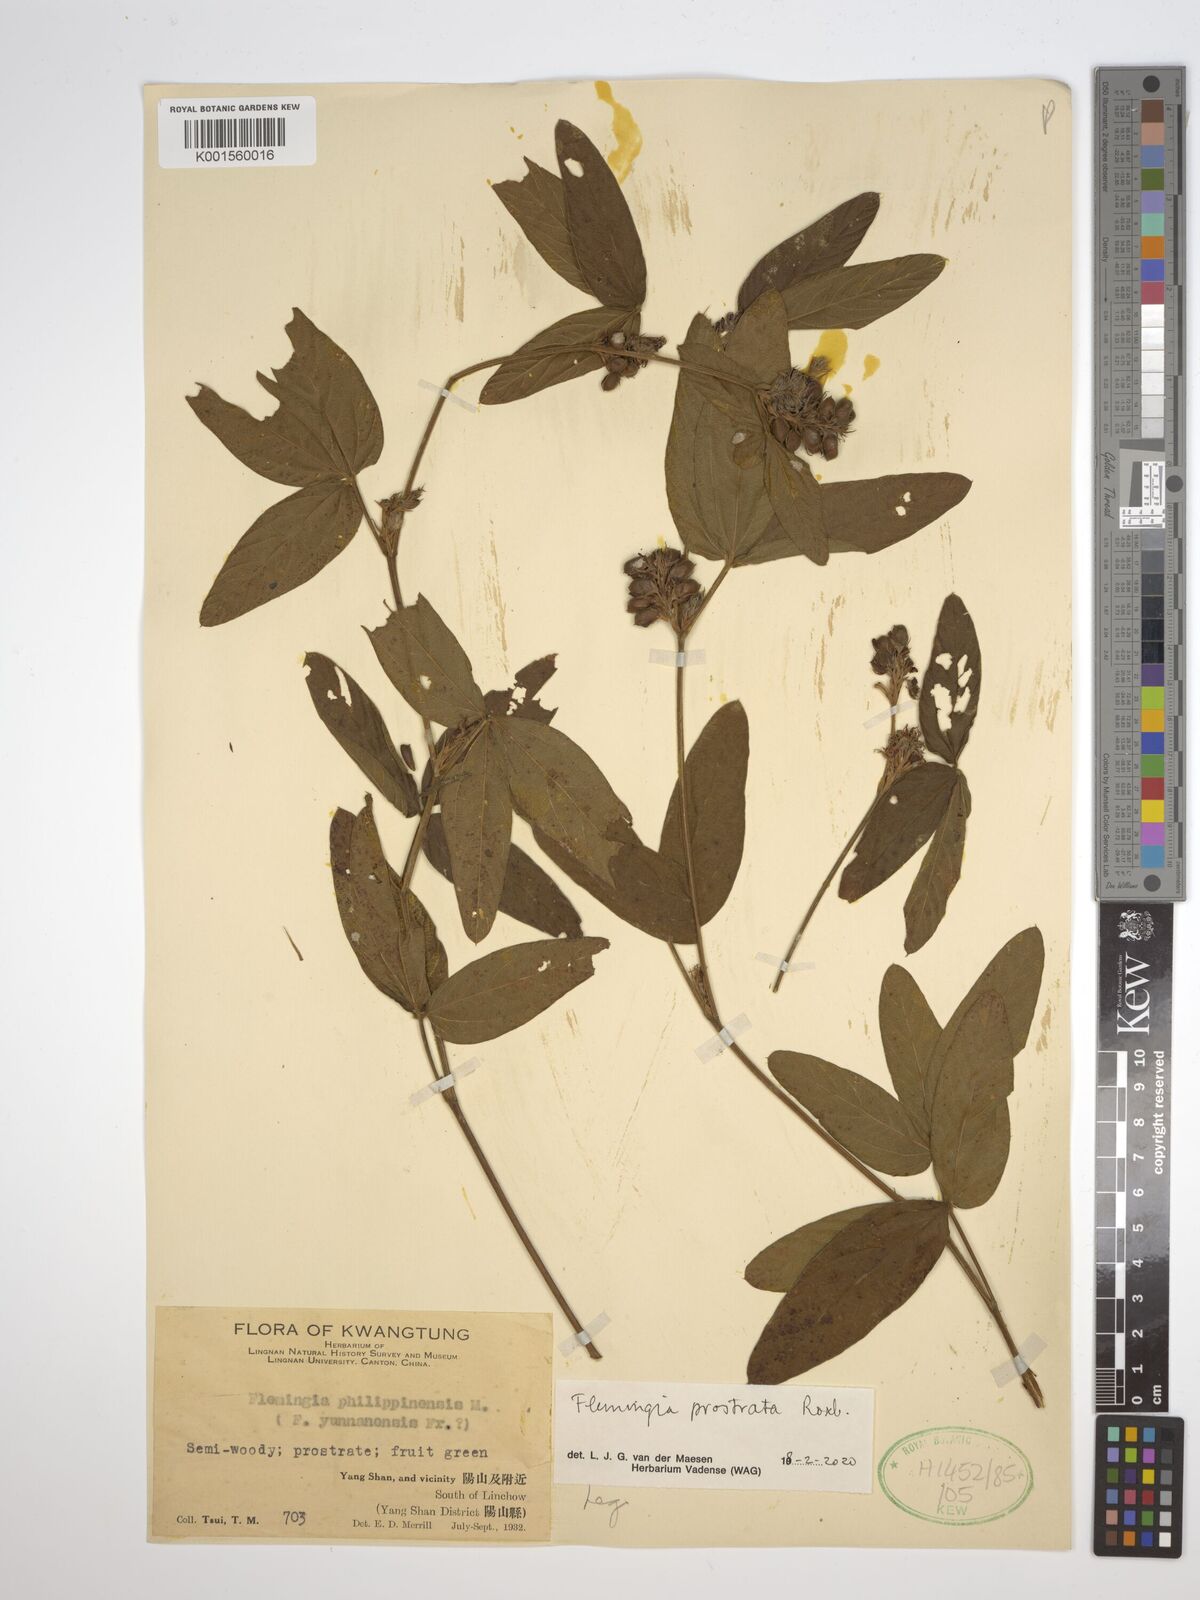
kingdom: Plantae
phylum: Tracheophyta
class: Magnoliopsida
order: Fabales
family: Fabaceae
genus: Flemingia
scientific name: Flemingia prostrata
